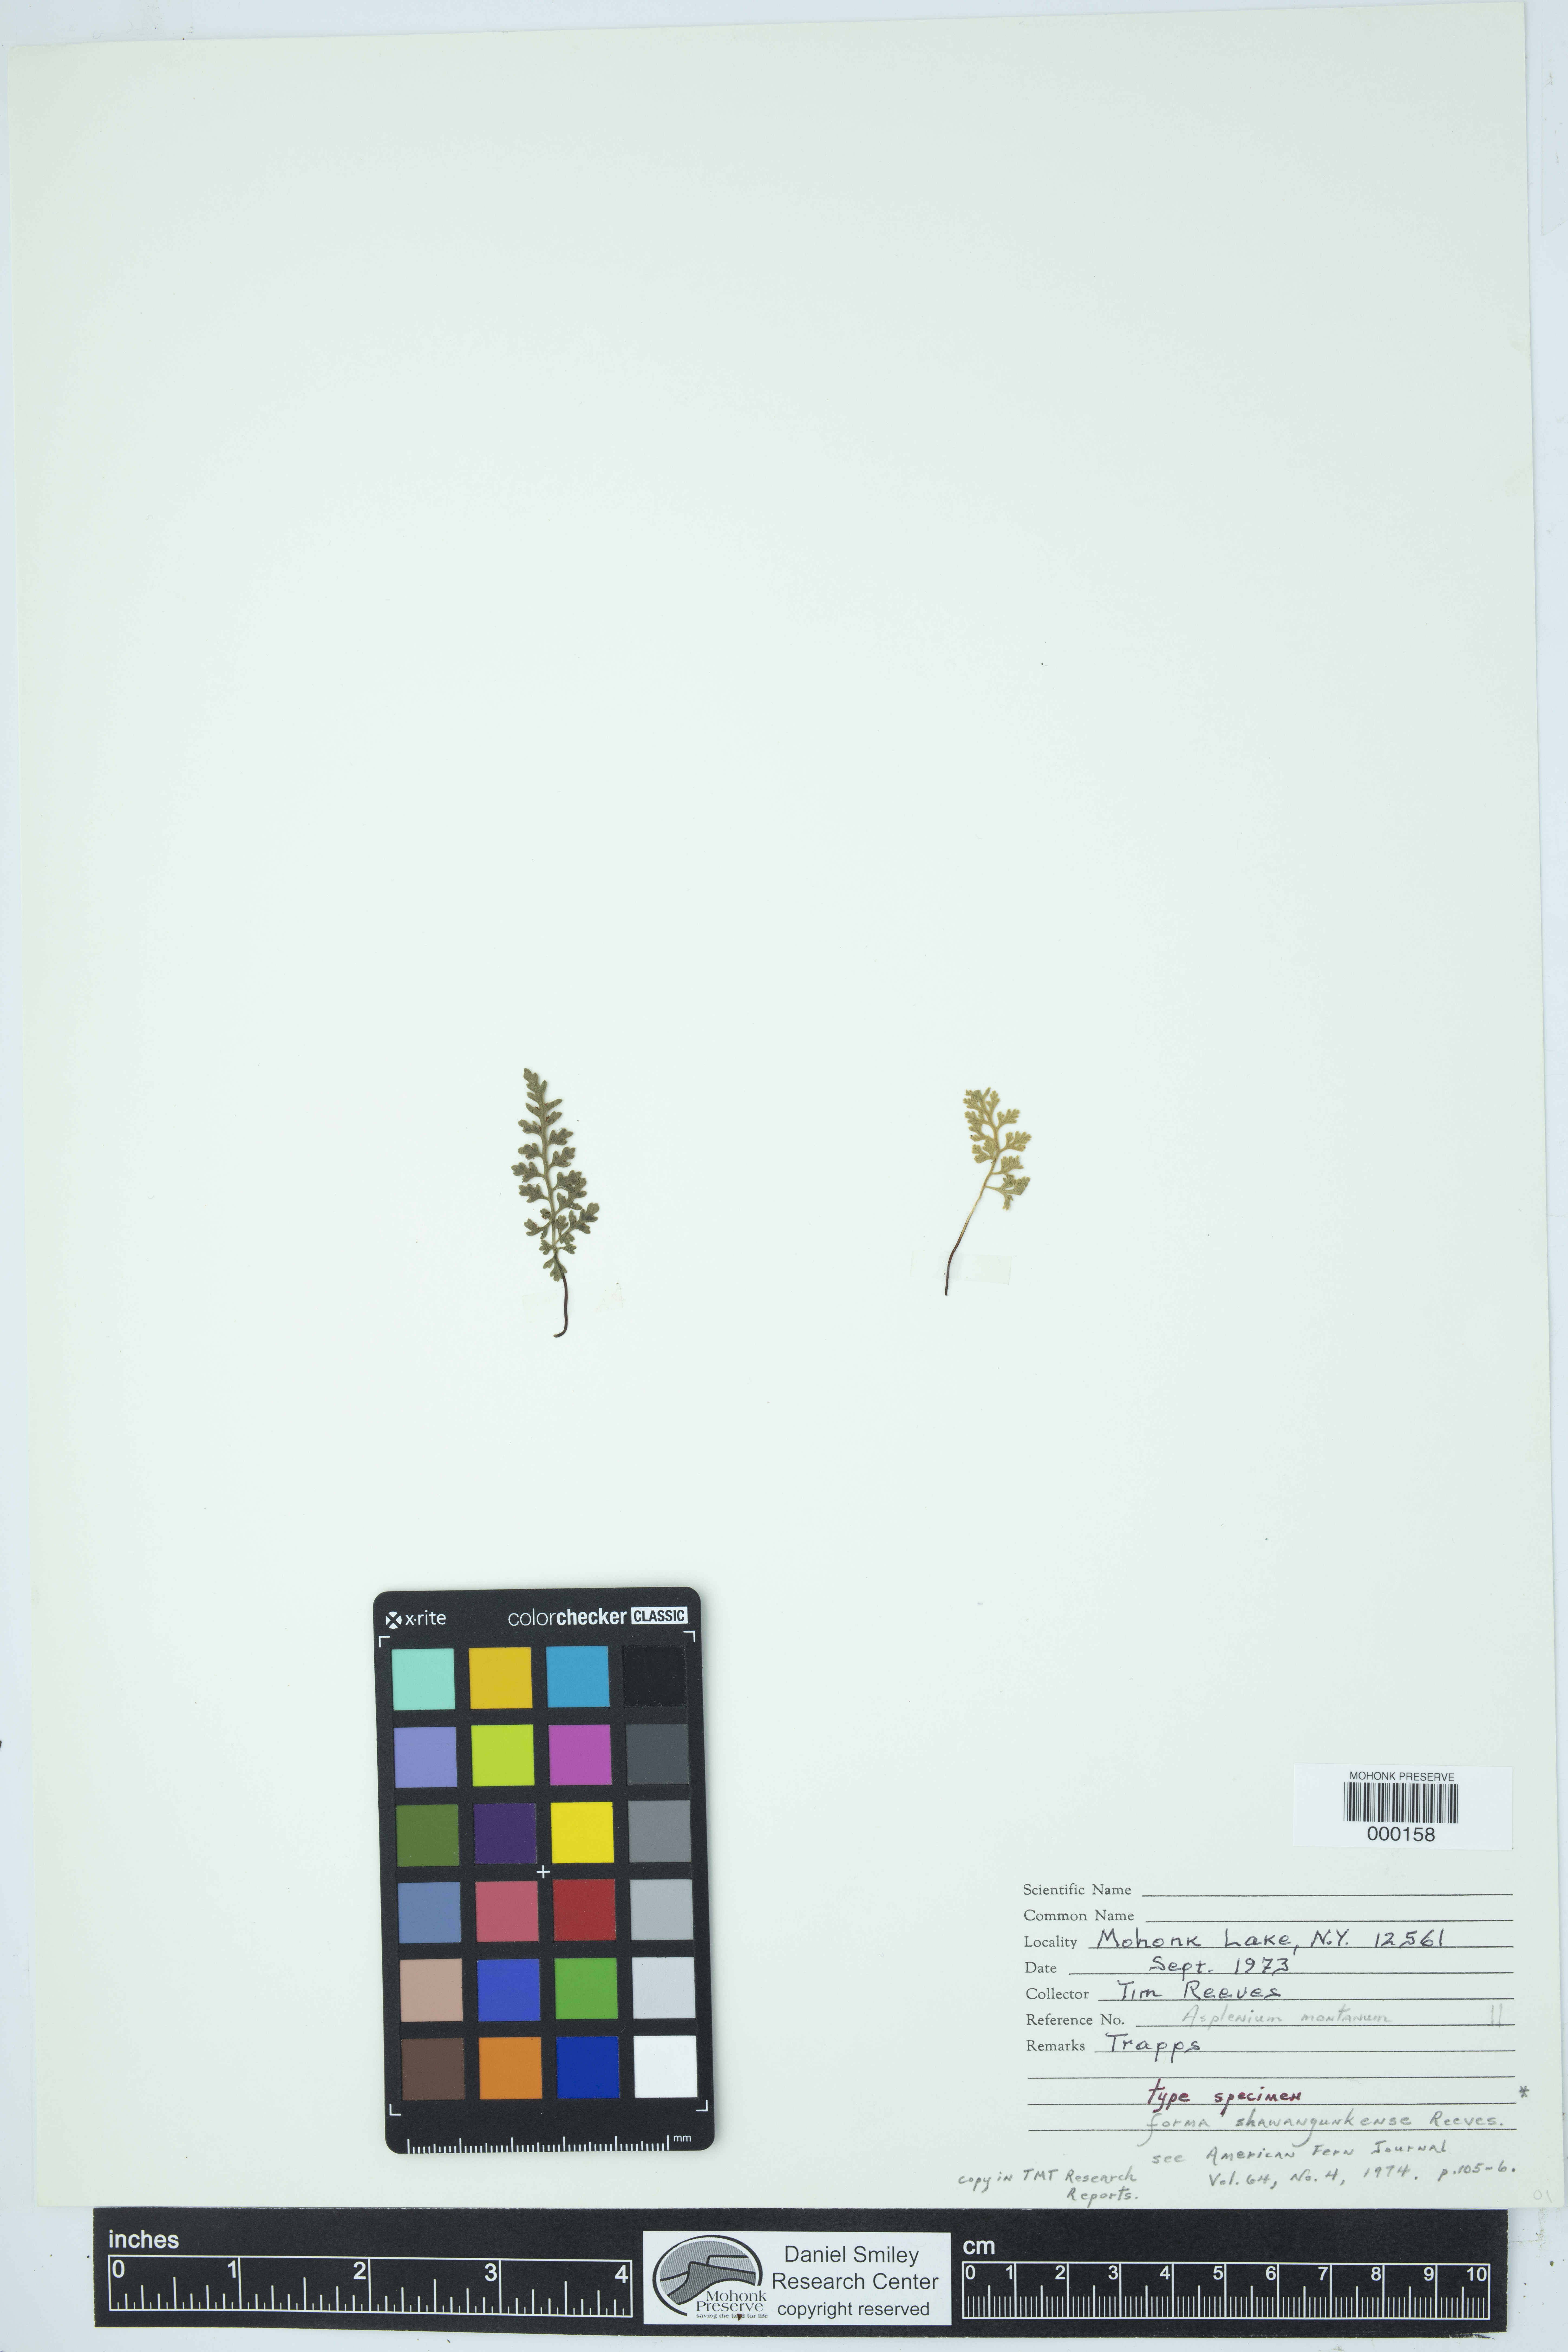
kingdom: Plantae
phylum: Tracheophyta
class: Polypodiopsida
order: Polypodiales
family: Aspleniaceae
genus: Asplenium
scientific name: Asplenium montanum
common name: Mountain spleenwort
